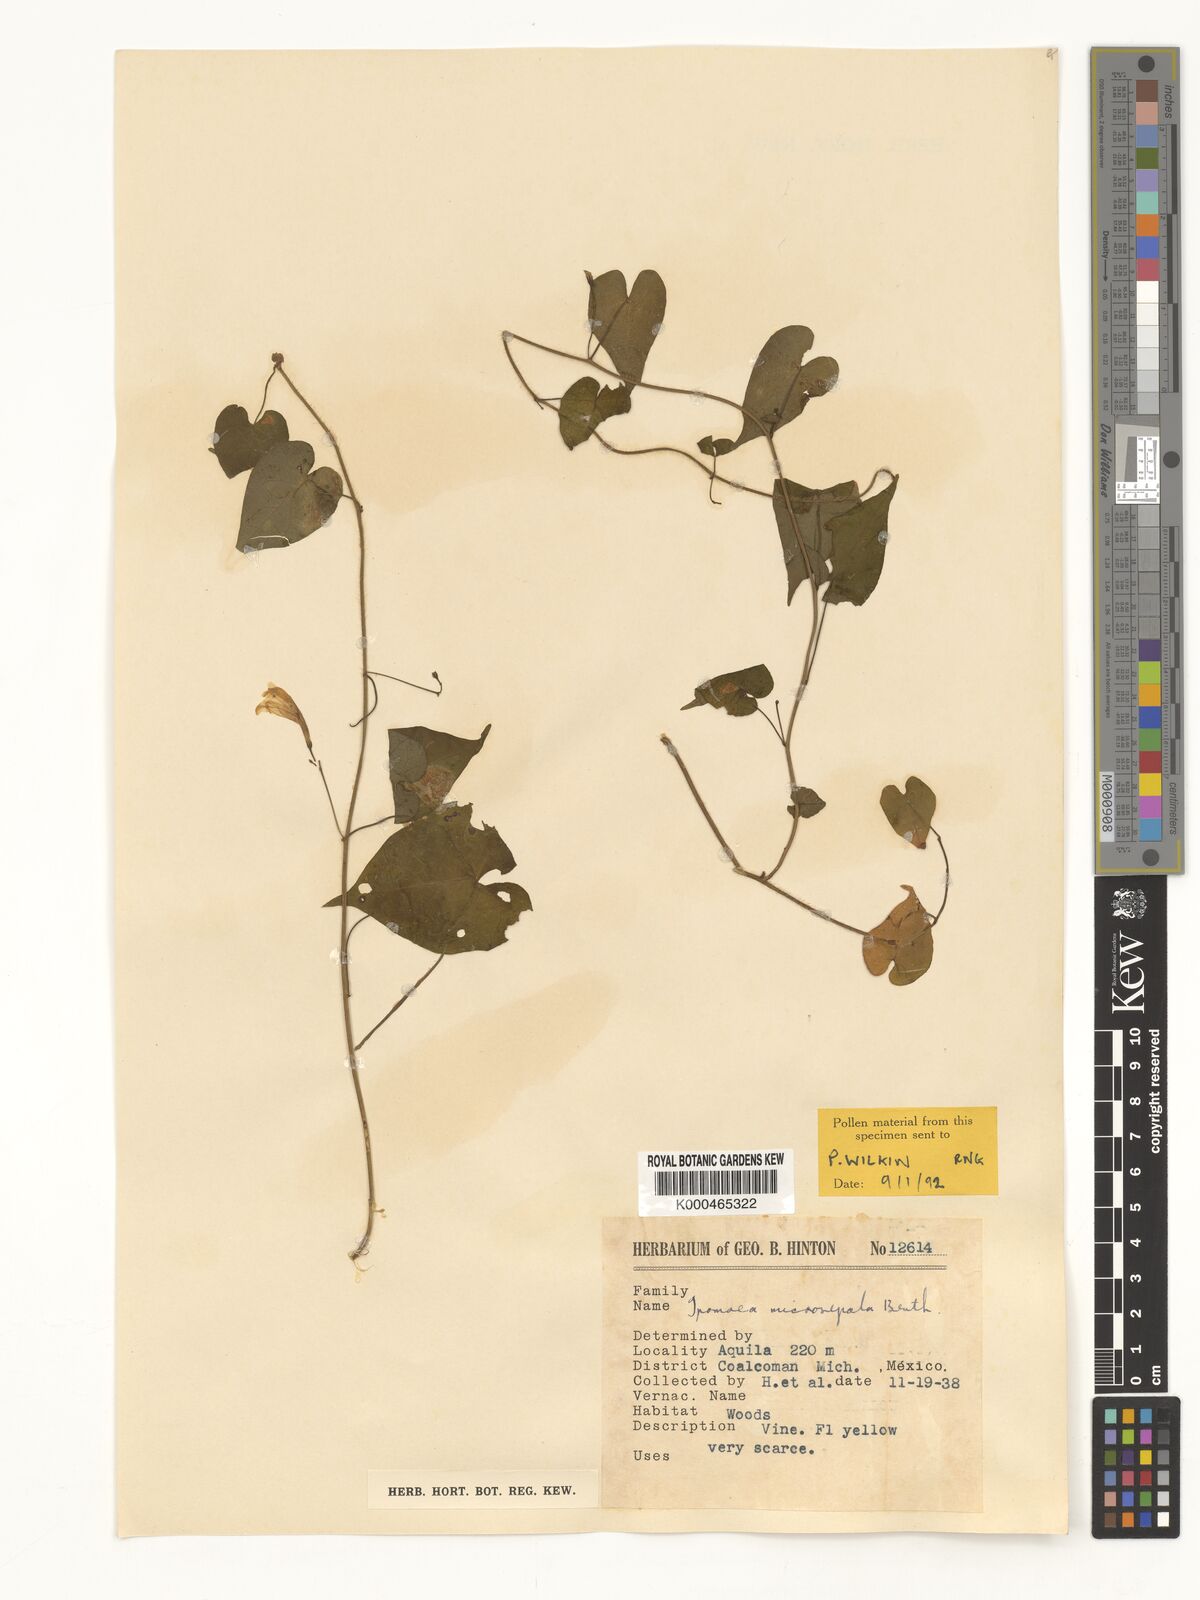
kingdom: Plantae
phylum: Tracheophyta
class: Magnoliopsida
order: Solanales
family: Convolvulaceae
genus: Ipomoea
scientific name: Ipomoea microsepala
